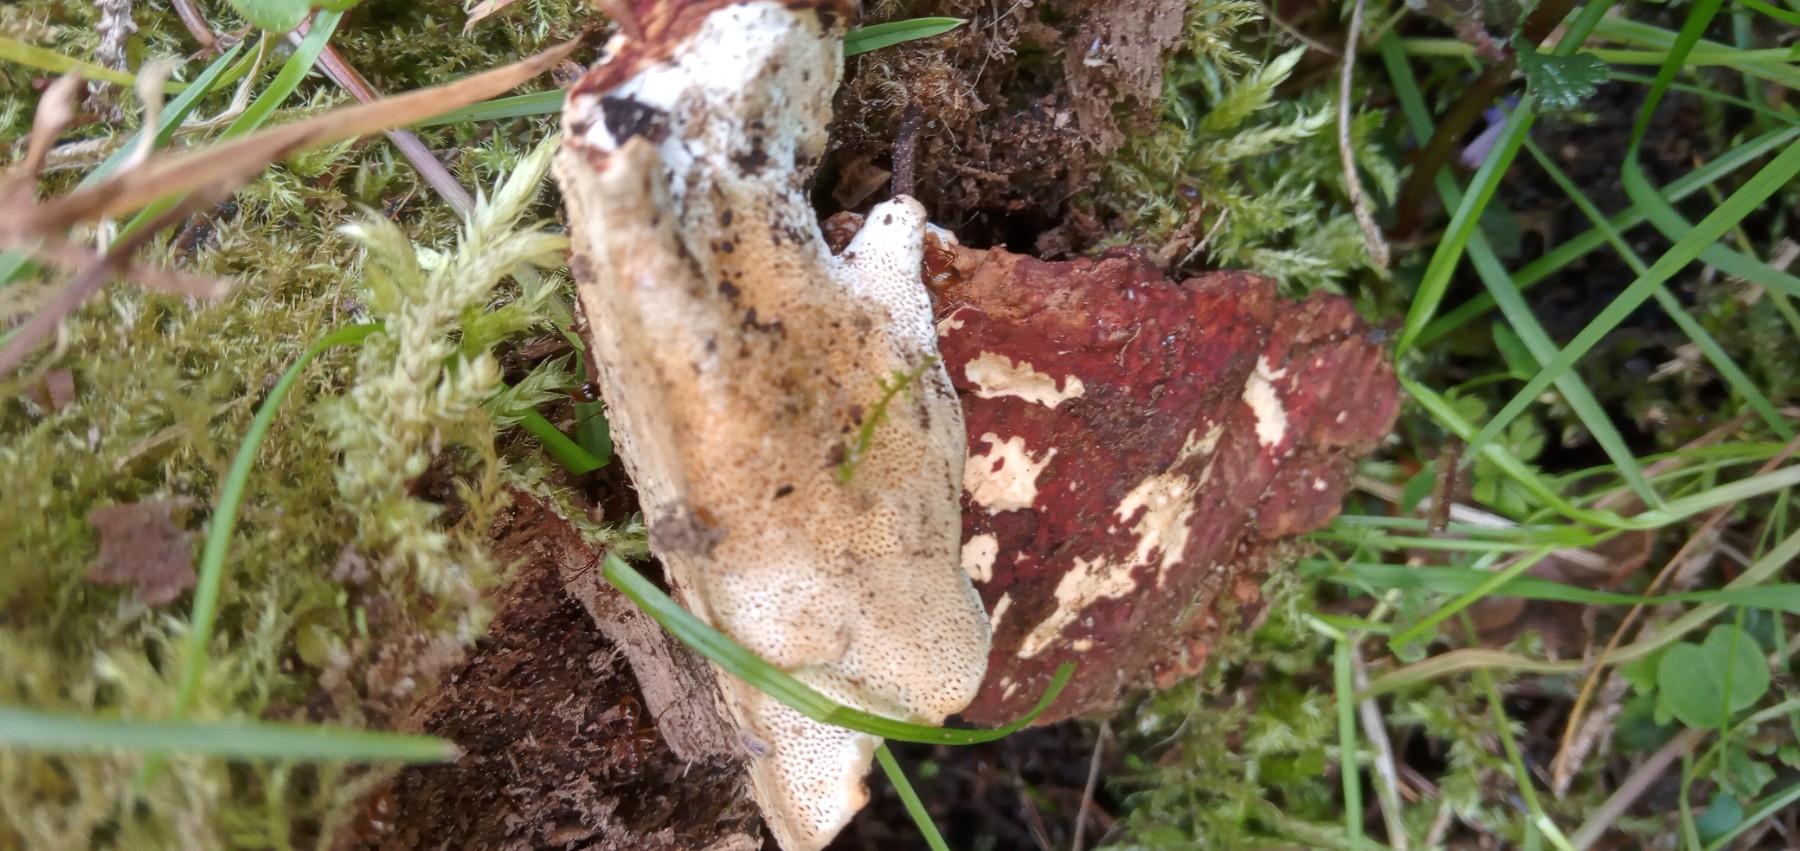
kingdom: Fungi
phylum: Basidiomycota
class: Agaricomycetes
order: Russulales
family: Bondarzewiaceae
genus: Heterobasidion
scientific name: Heterobasidion annosum
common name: almindelig rodfordærver
